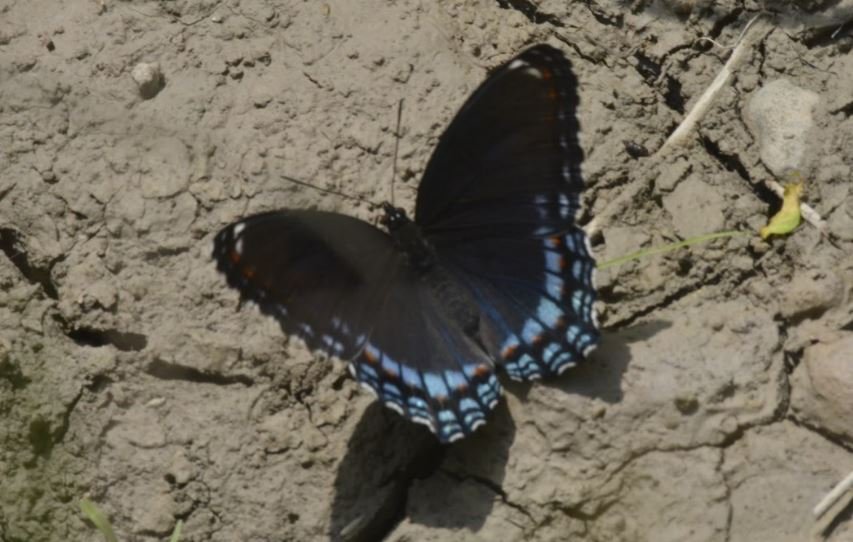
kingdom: Animalia
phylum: Arthropoda
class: Insecta
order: Lepidoptera
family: Nymphalidae
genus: Limenitis
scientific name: Limenitis astyanax
